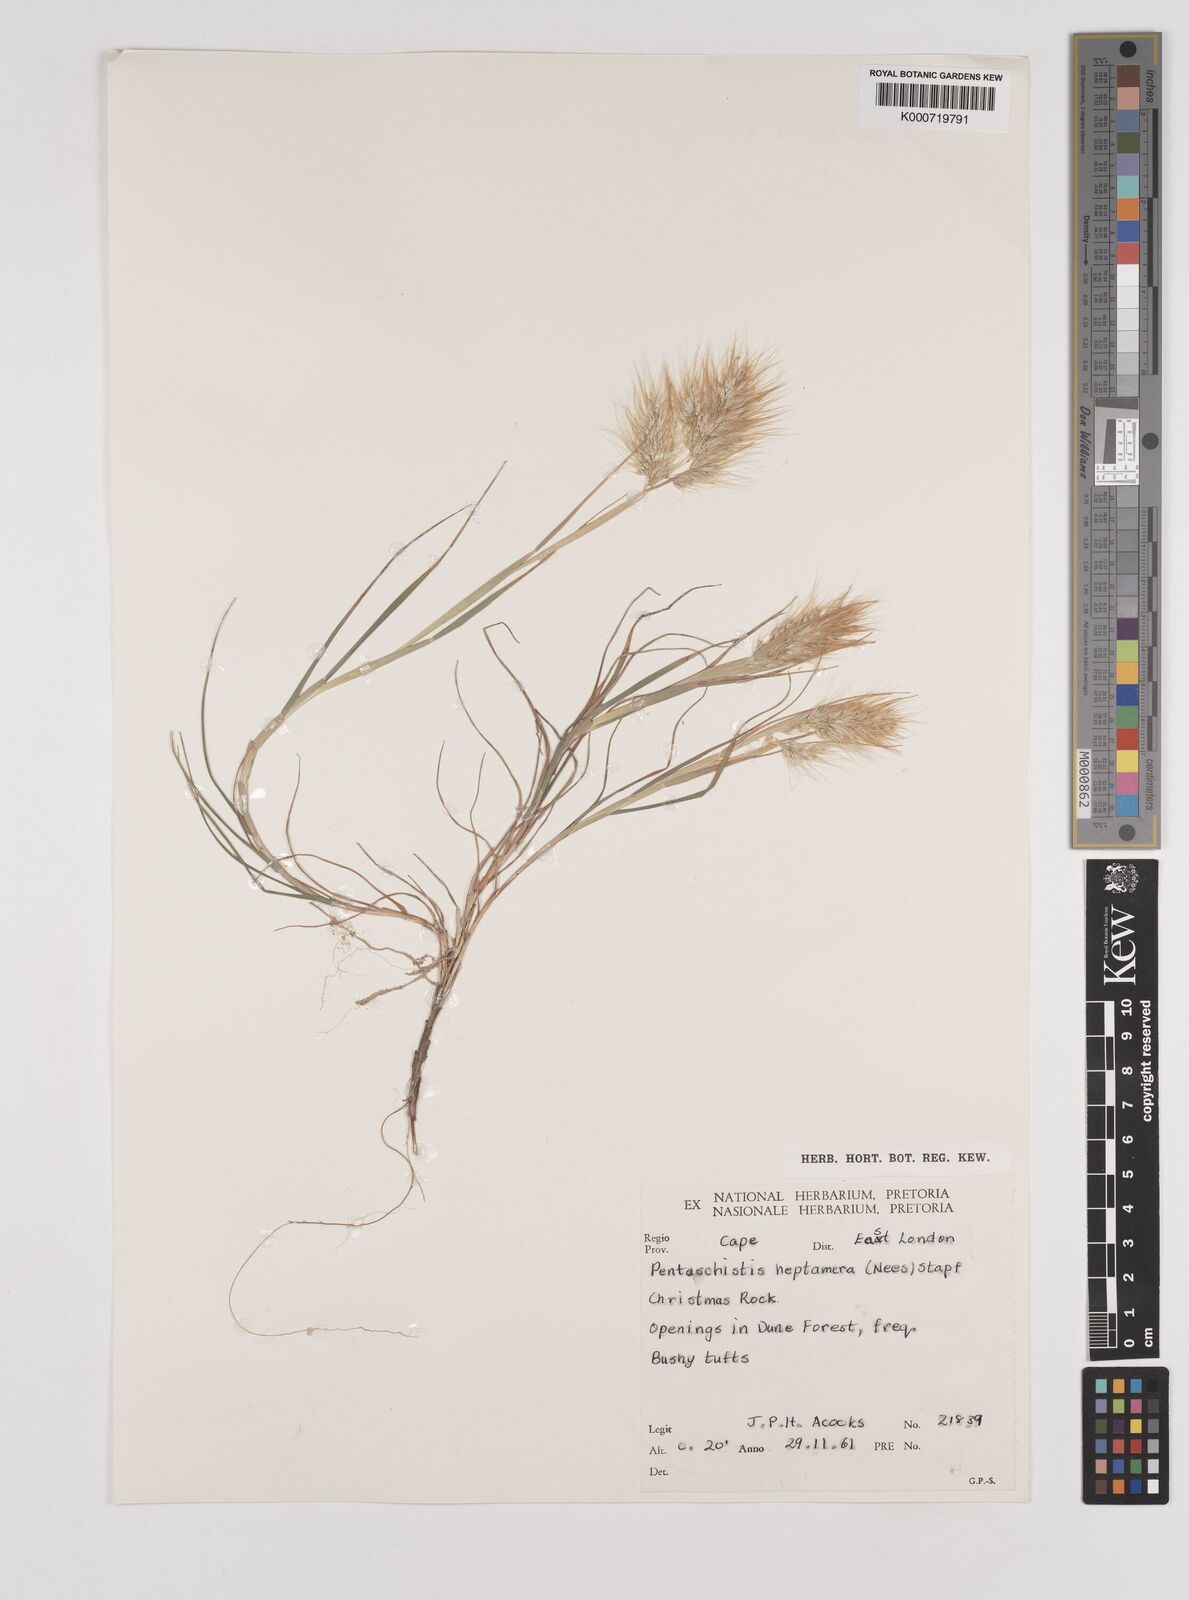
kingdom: Plantae
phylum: Tracheophyta
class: Liliopsida
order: Poales
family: Poaceae
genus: Pentameris
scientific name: Pentameris heptamera
